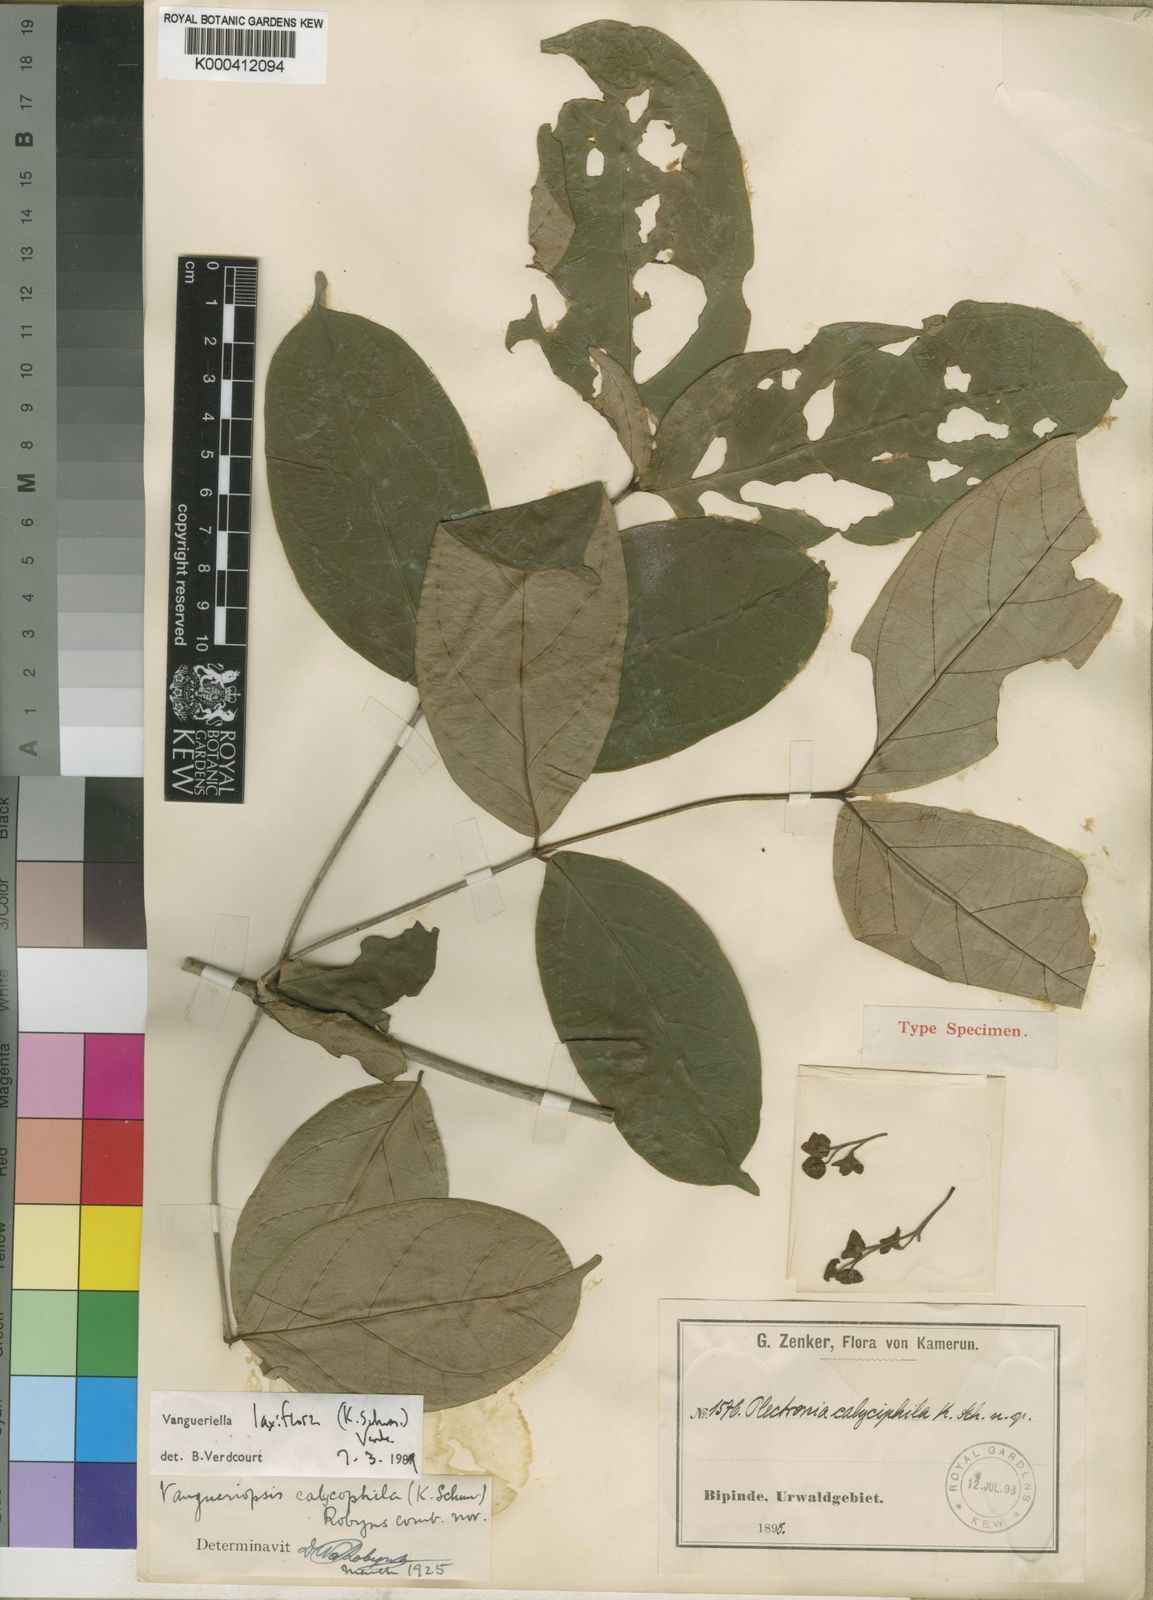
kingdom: Plantae
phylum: Tracheophyta
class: Magnoliopsida
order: Gentianales
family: Rubiaceae
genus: Vangueriella
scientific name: Vangueriella laxiflora
